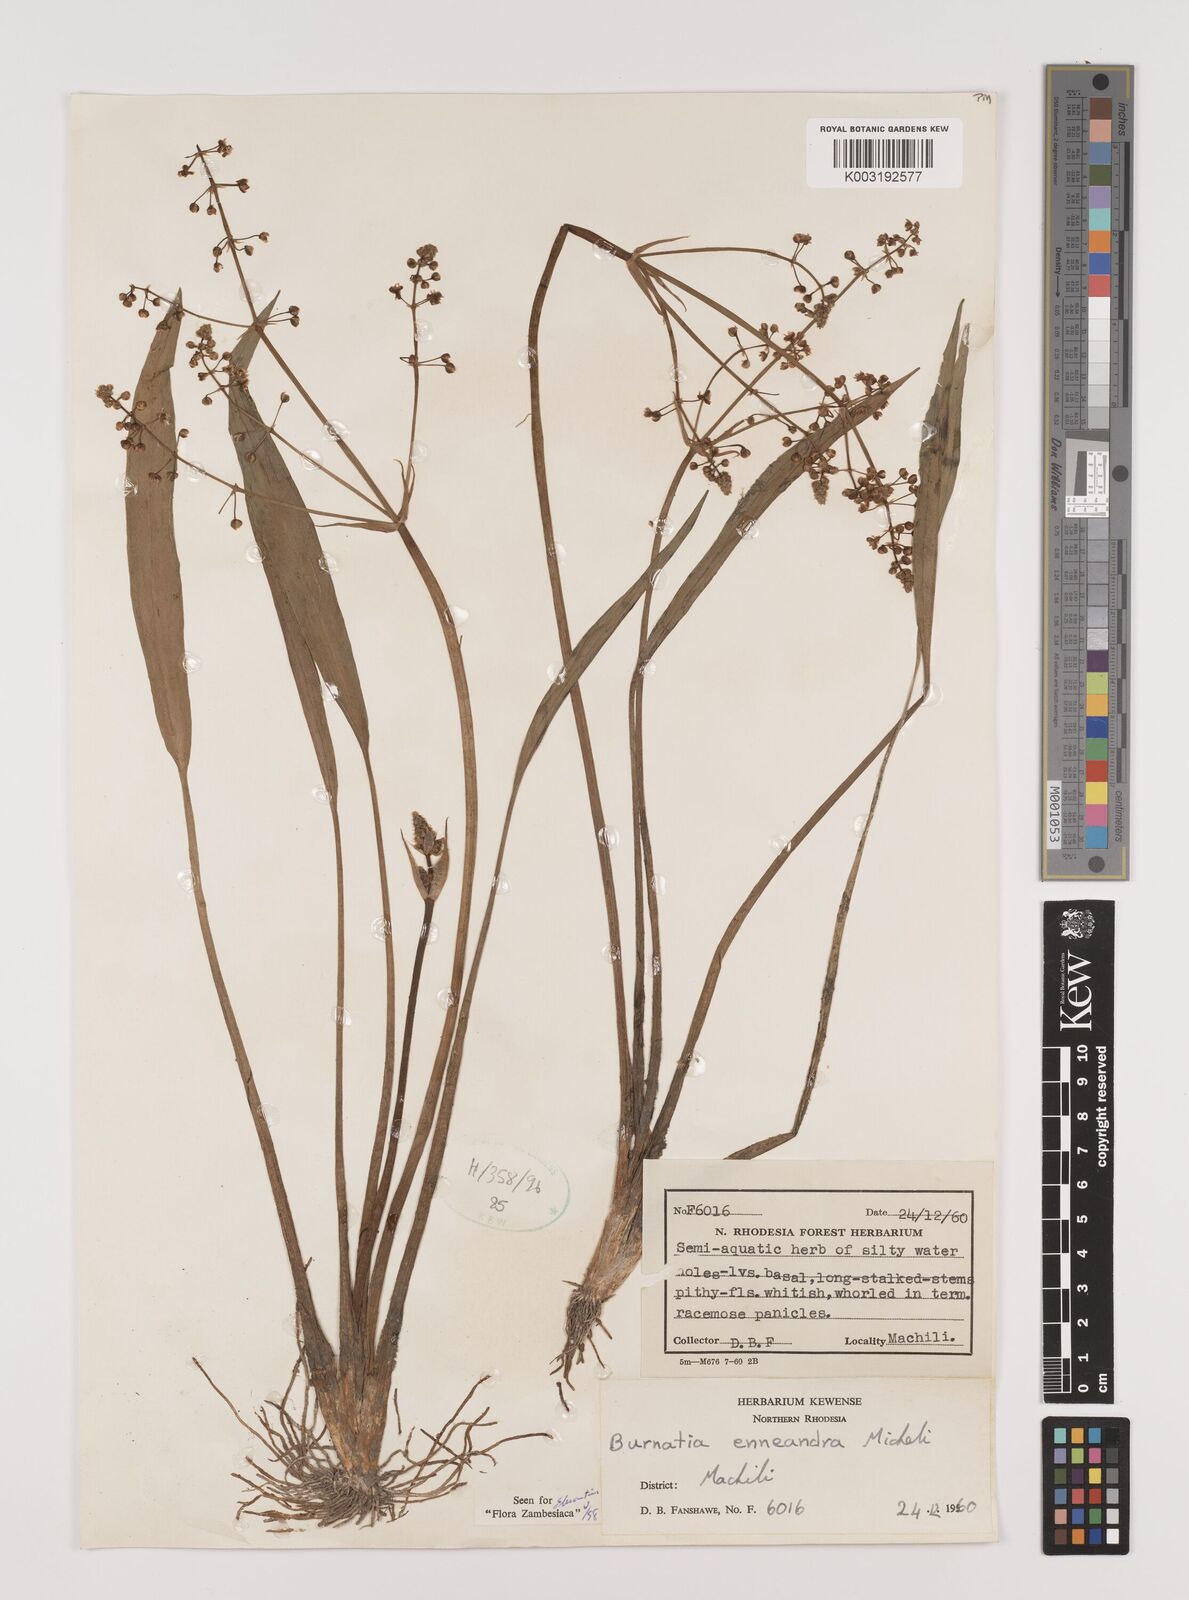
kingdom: Plantae
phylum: Tracheophyta
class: Liliopsida
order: Alismatales
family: Alismataceae
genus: Burnatia
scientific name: Burnatia enneandra
